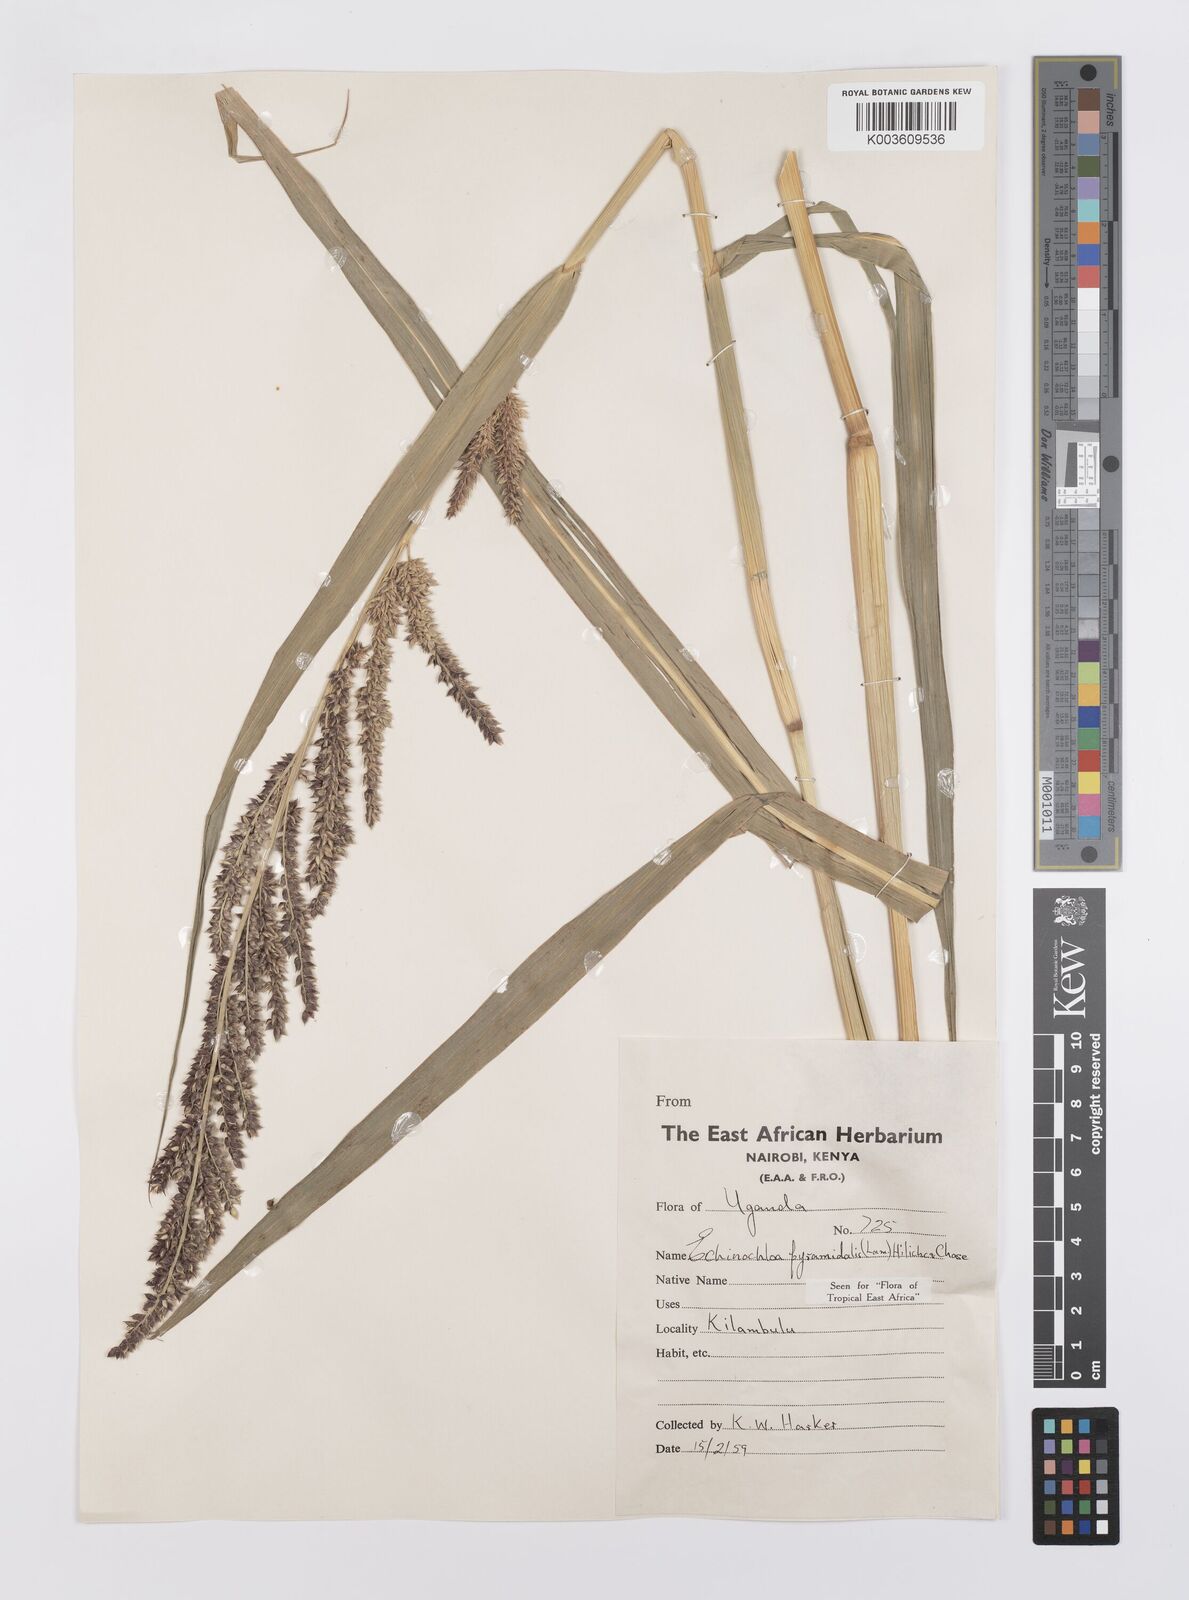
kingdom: Plantae
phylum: Tracheophyta
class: Liliopsida
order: Poales
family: Poaceae
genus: Echinochloa
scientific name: Echinochloa pyramidalis
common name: Antelope grass
